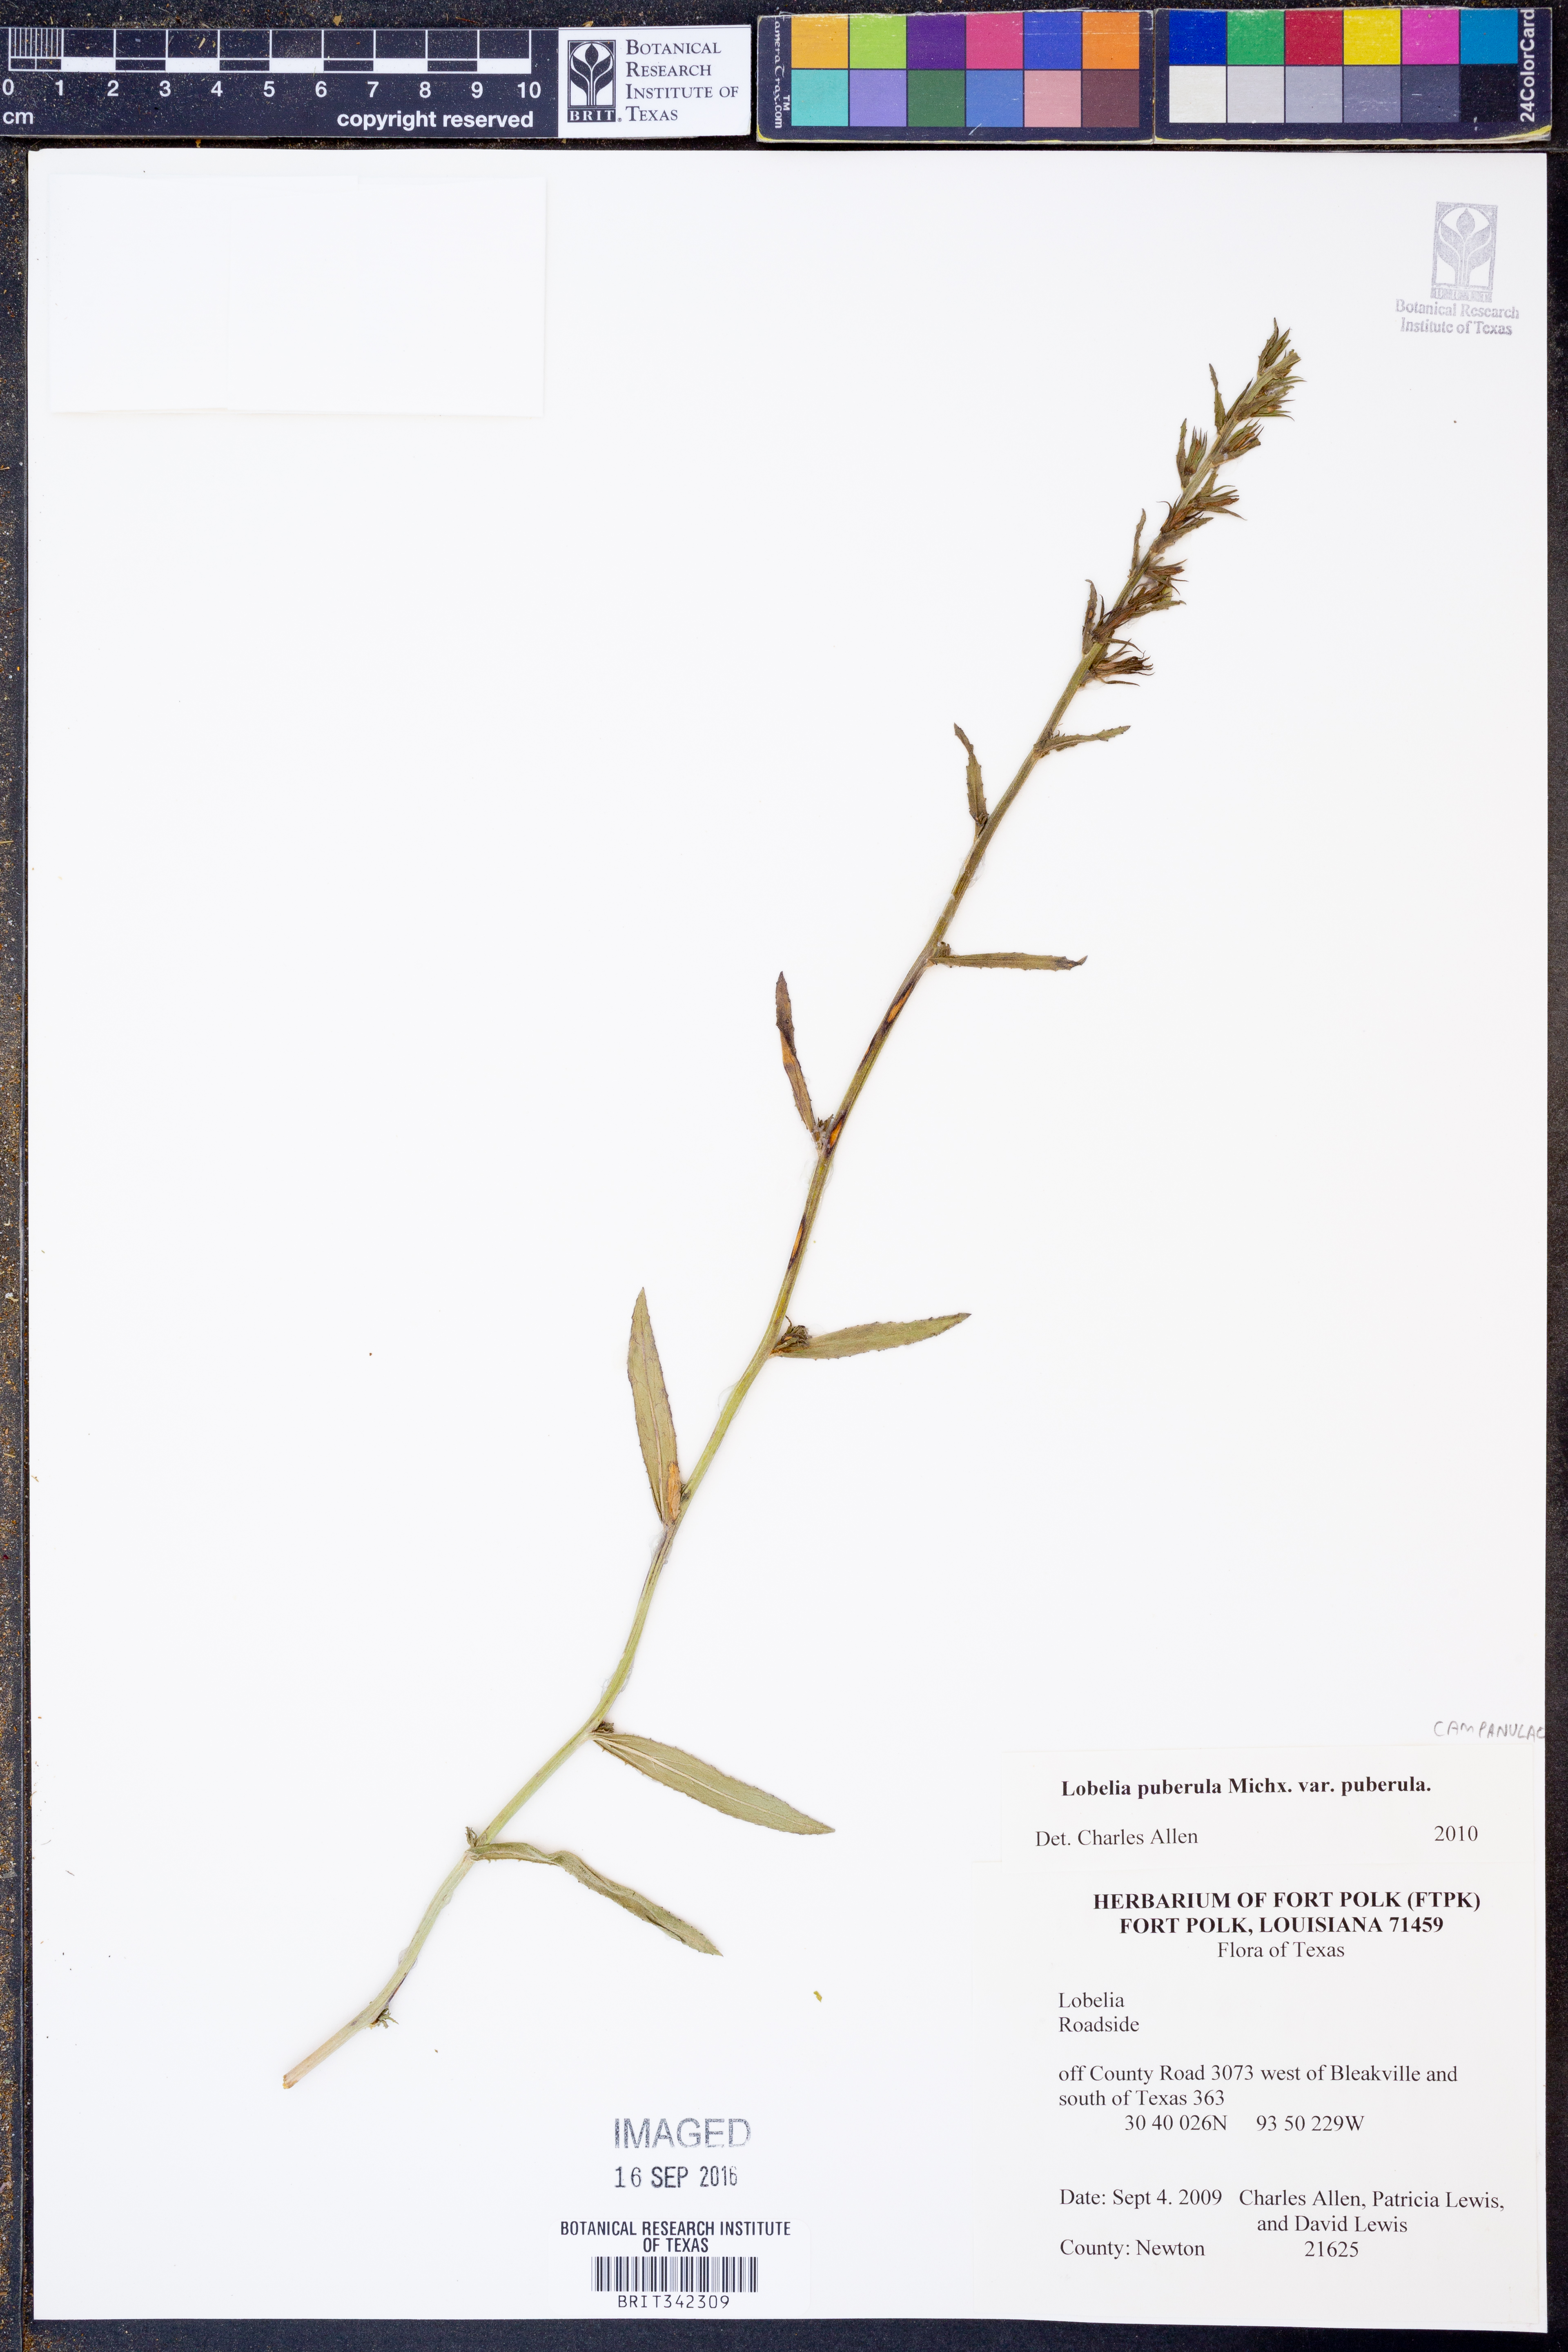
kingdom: Plantae
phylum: Tracheophyta
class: Magnoliopsida
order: Asterales
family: Campanulaceae
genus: Lobelia
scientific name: Lobelia puberula
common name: Purple dewdrop
